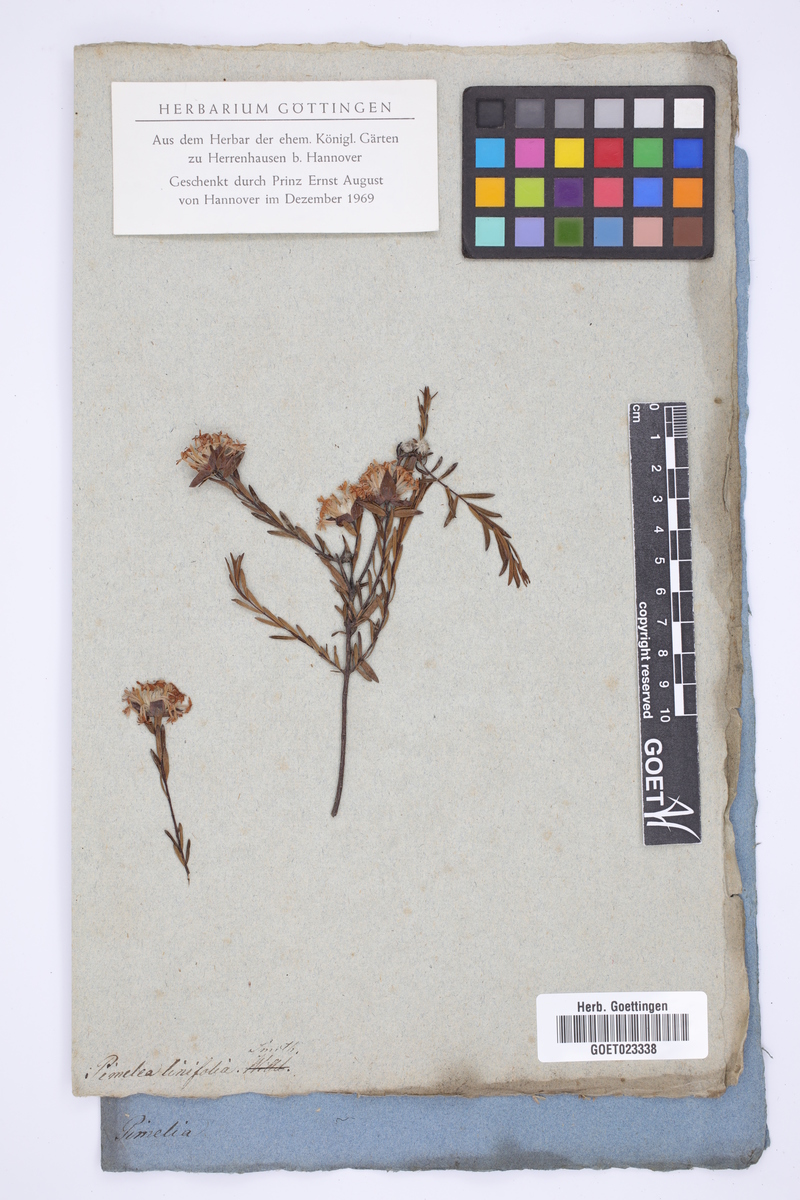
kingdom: Plantae
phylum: Tracheophyta
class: Magnoliopsida
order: Malvales
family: Thymelaeaceae
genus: Pimelea
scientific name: Pimelea linifolia
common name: Queen-of-the-bush
